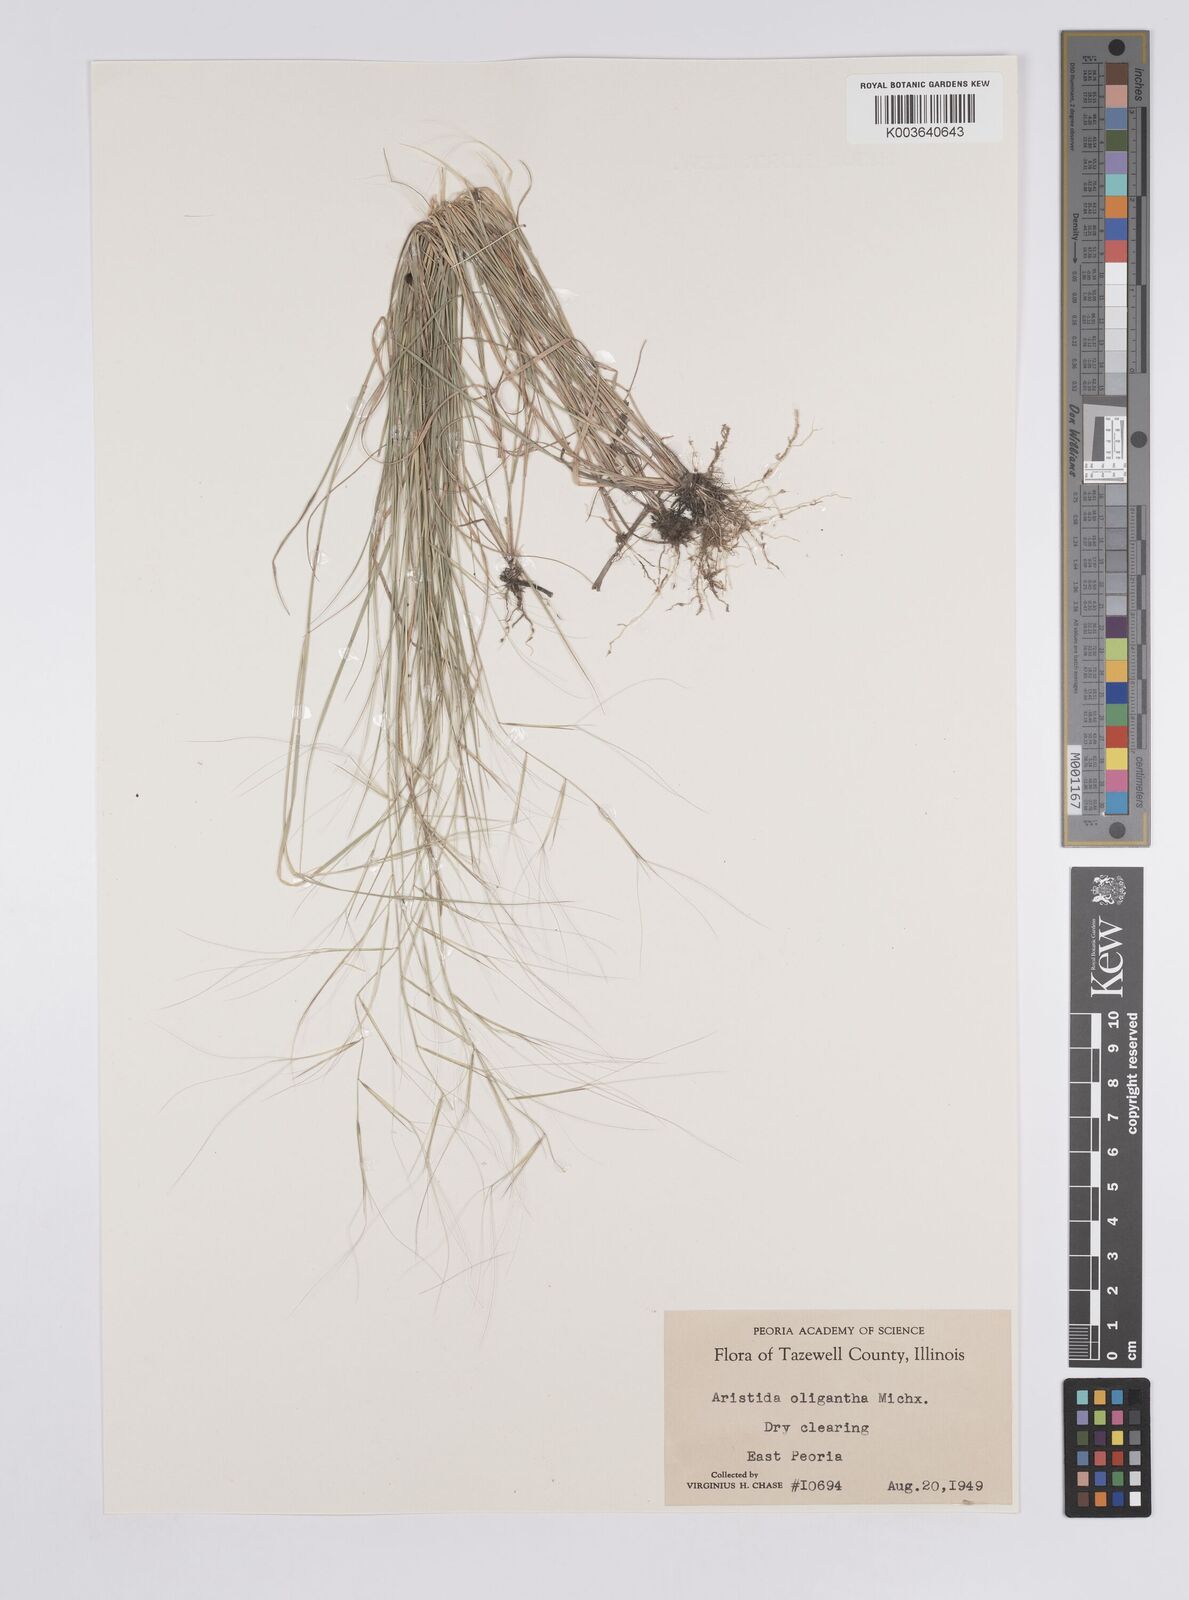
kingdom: Plantae
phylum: Tracheophyta
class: Liliopsida
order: Poales
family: Poaceae
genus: Aristida
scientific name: Aristida oligantha
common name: Few-flowered aristida
